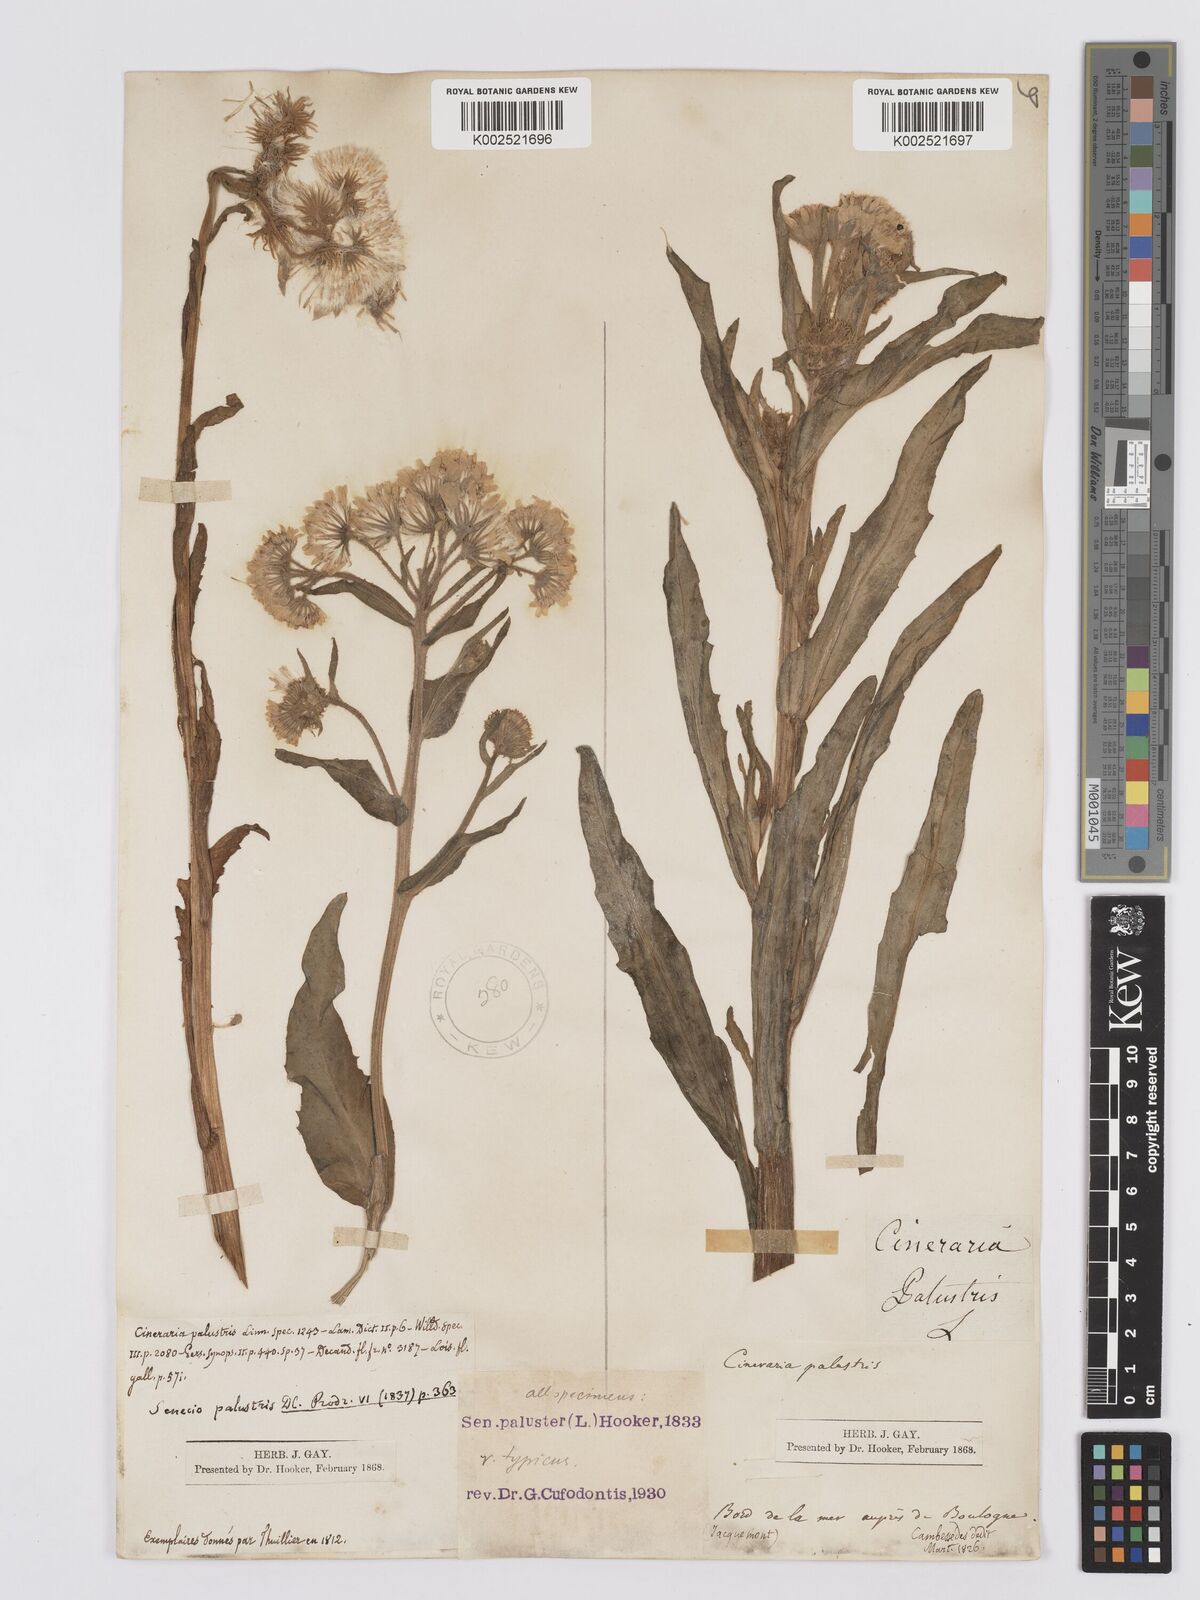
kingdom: Plantae
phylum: Tracheophyta
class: Magnoliopsida
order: Asterales
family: Asteraceae
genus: Tephroseris
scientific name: Tephroseris palustris
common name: Marsh fleawort
